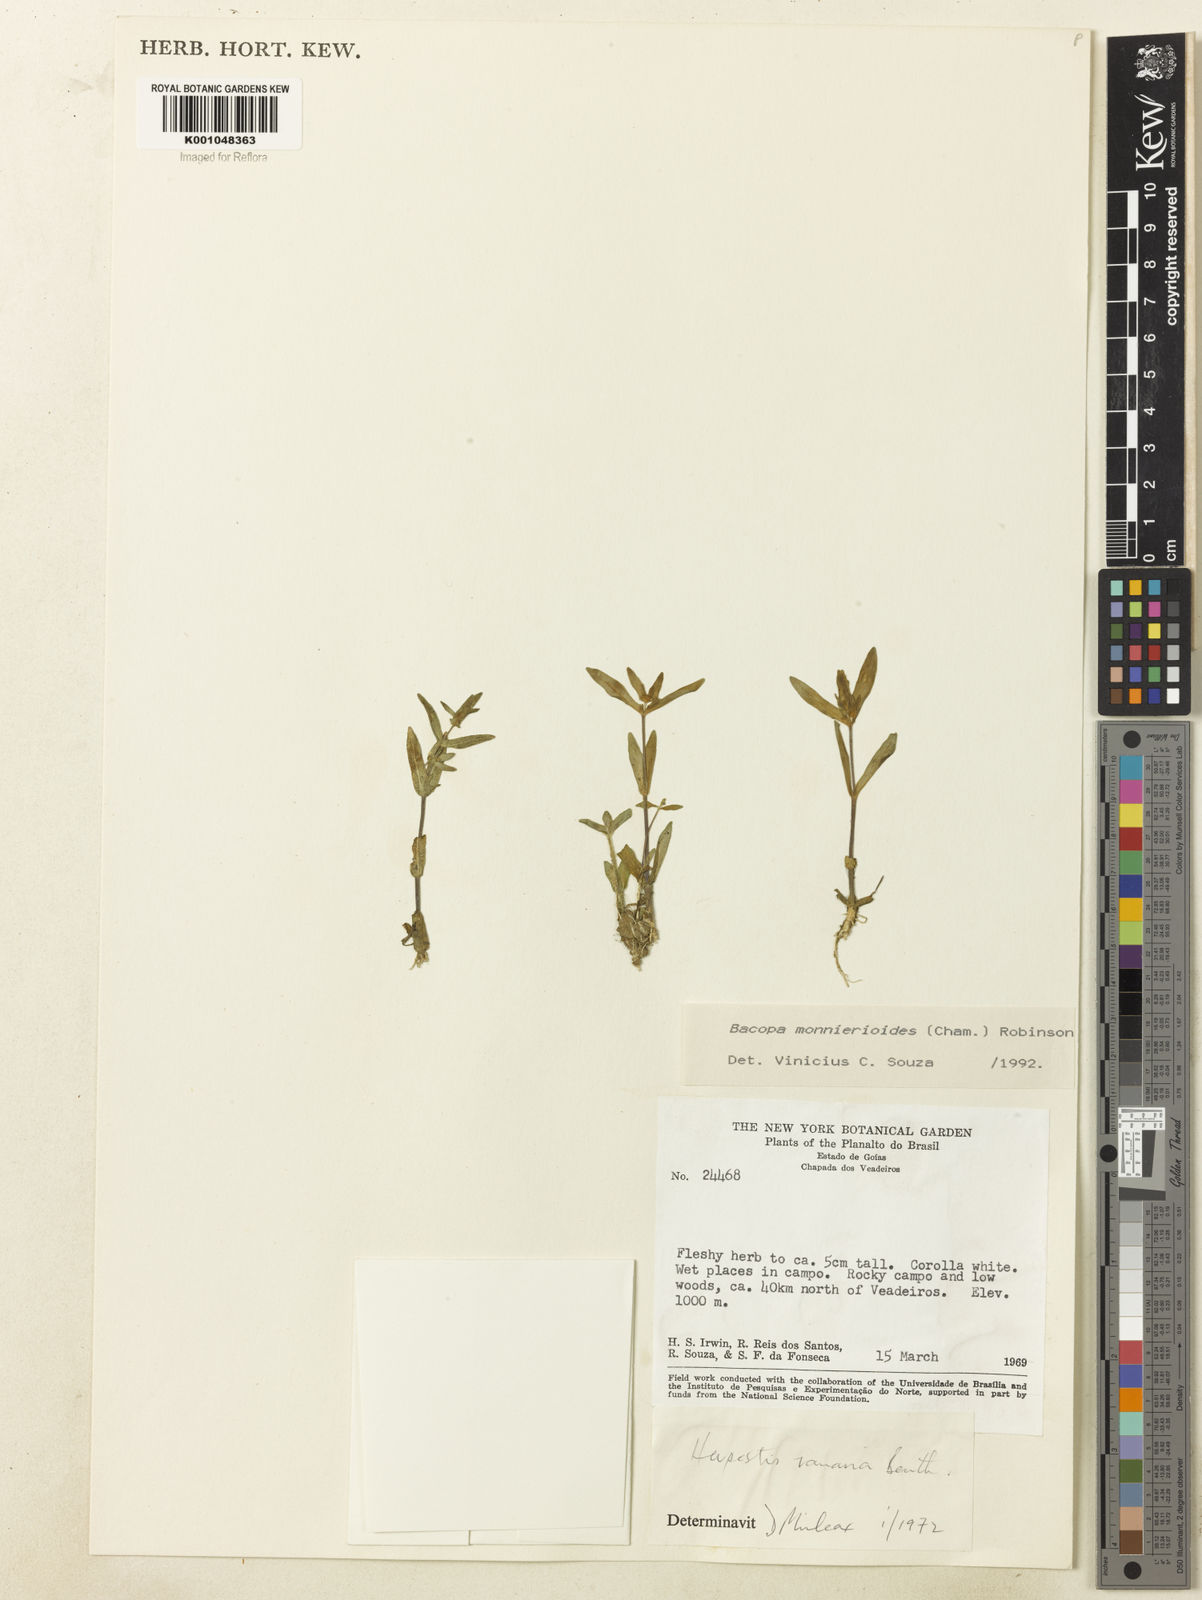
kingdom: Plantae
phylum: Tracheophyta
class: Magnoliopsida
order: Lamiales
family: Plantaginaceae
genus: Bacopa
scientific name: Bacopa monnierioides
